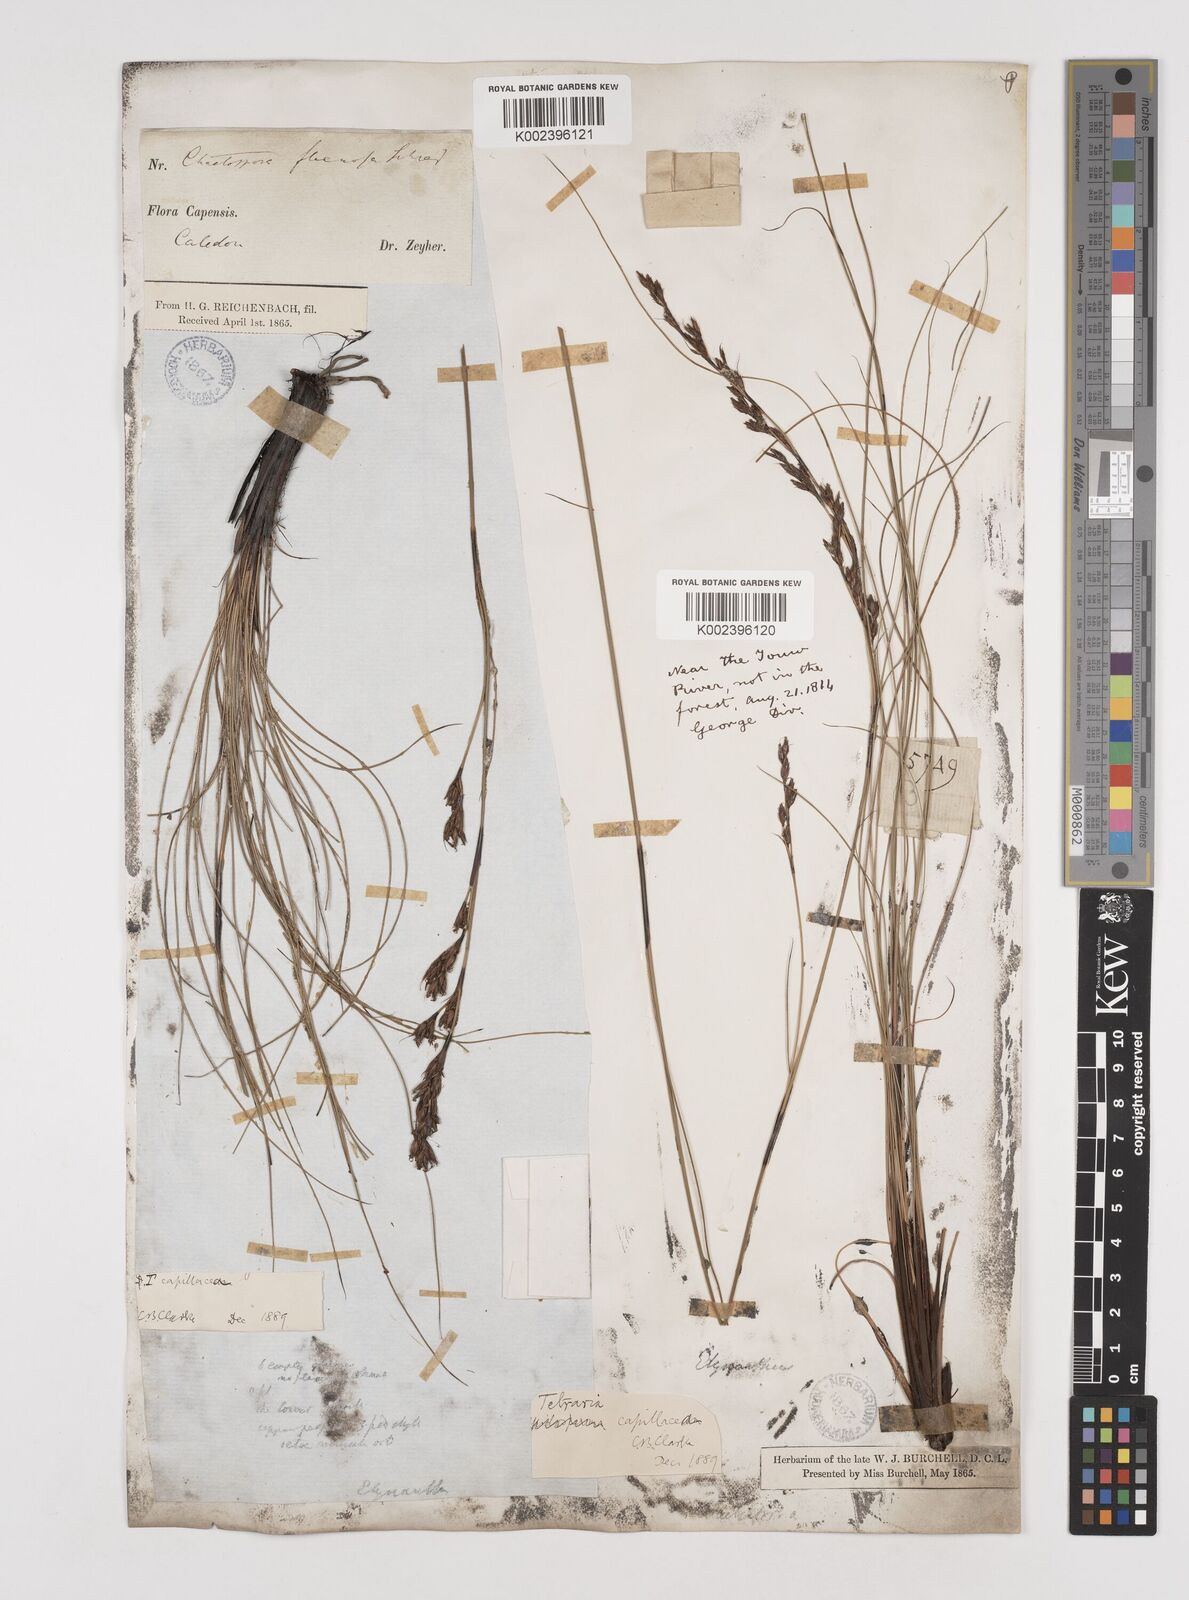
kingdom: Plantae
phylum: Tracheophyta
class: Liliopsida
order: Poales
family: Cyperaceae
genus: Tetraria
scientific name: Tetraria capillacea
